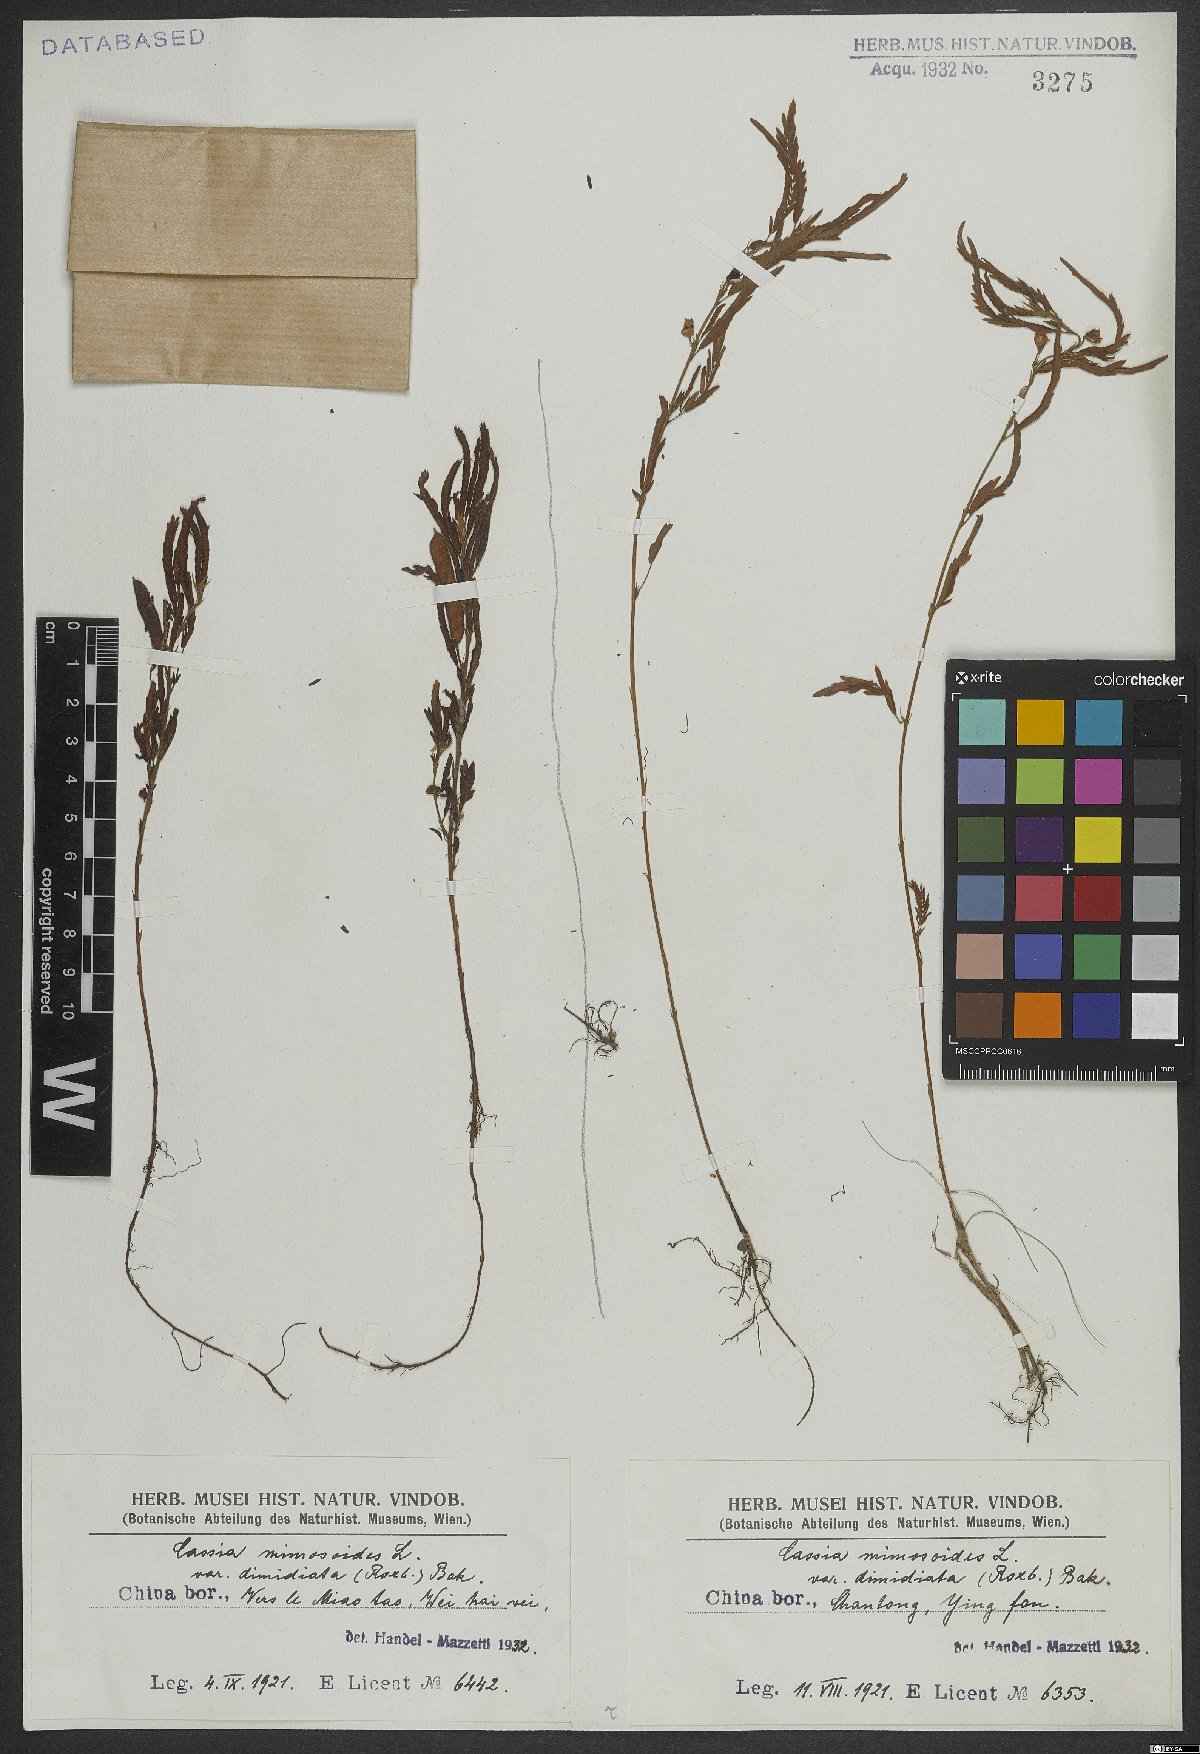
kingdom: Plantae
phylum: Tracheophyta
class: Magnoliopsida
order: Fabales
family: Fabaceae
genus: Chamaecrista
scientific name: Chamaecrista nomame
